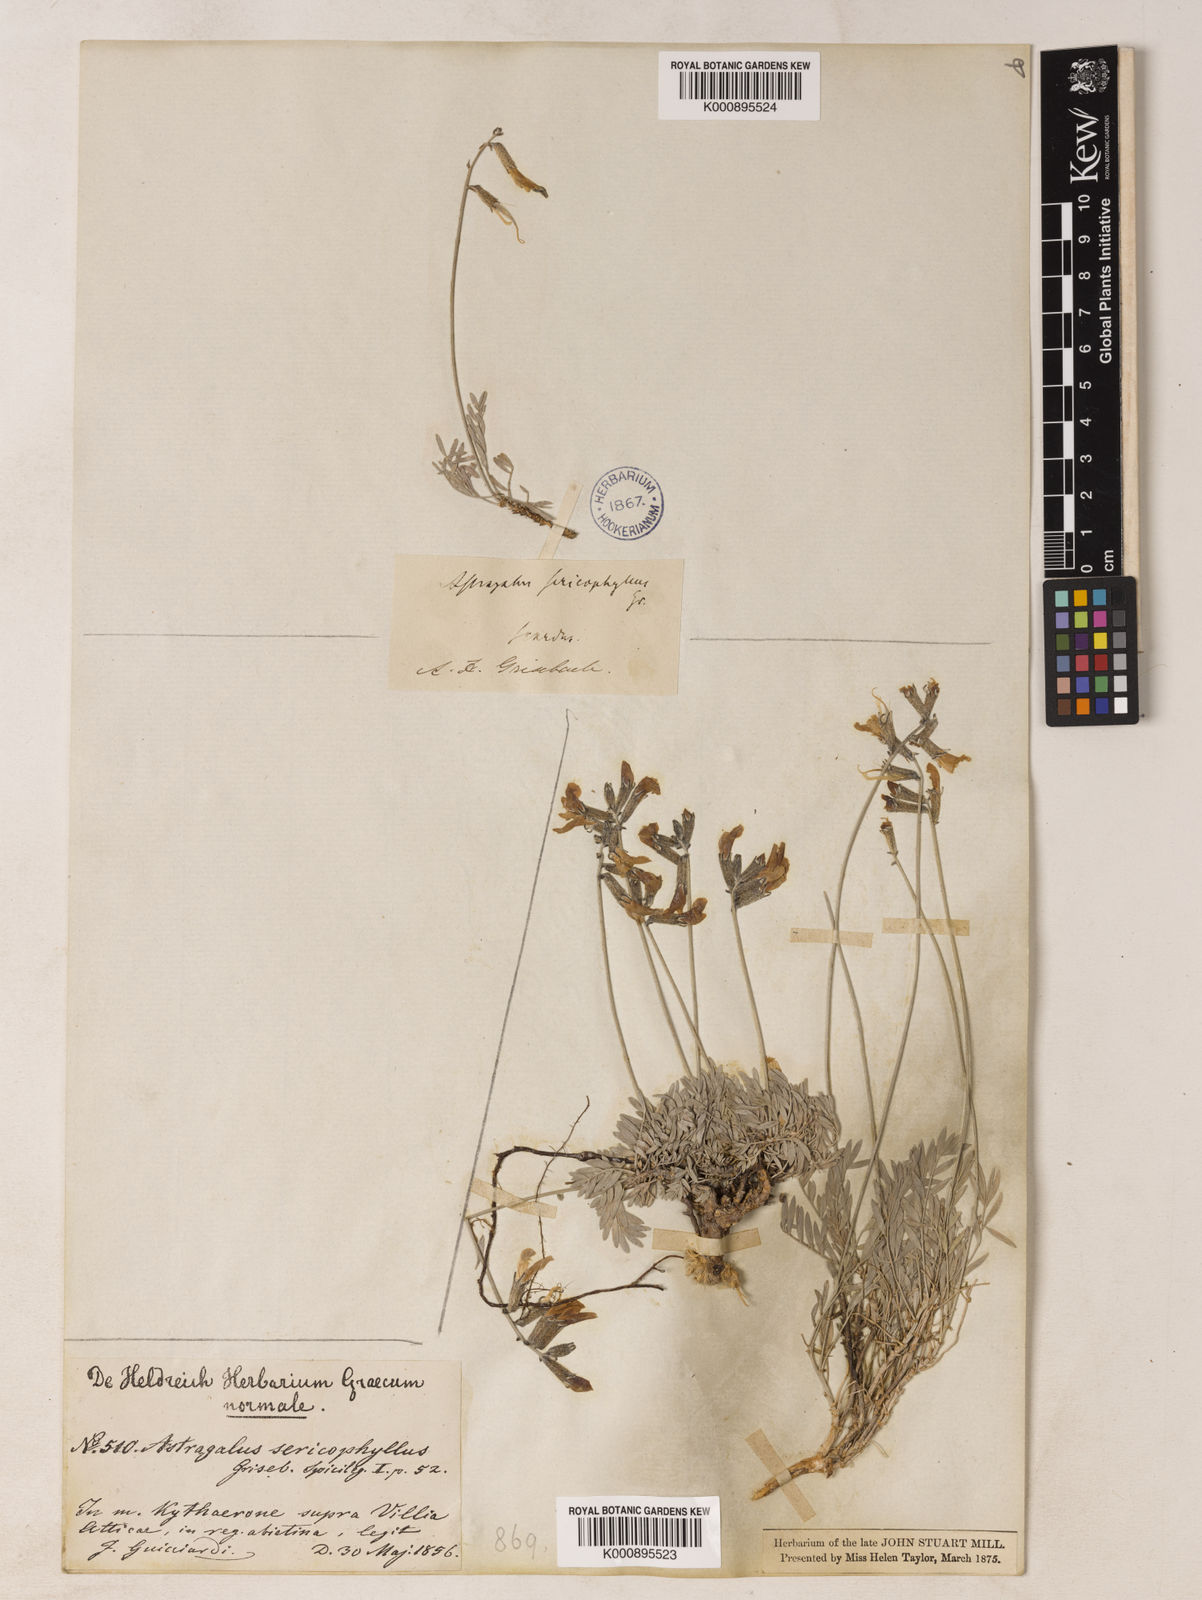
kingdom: Plantae
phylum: Tracheophyta
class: Magnoliopsida
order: Fabales
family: Fabaceae
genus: Astragalus
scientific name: Astragalus sericophyllus
